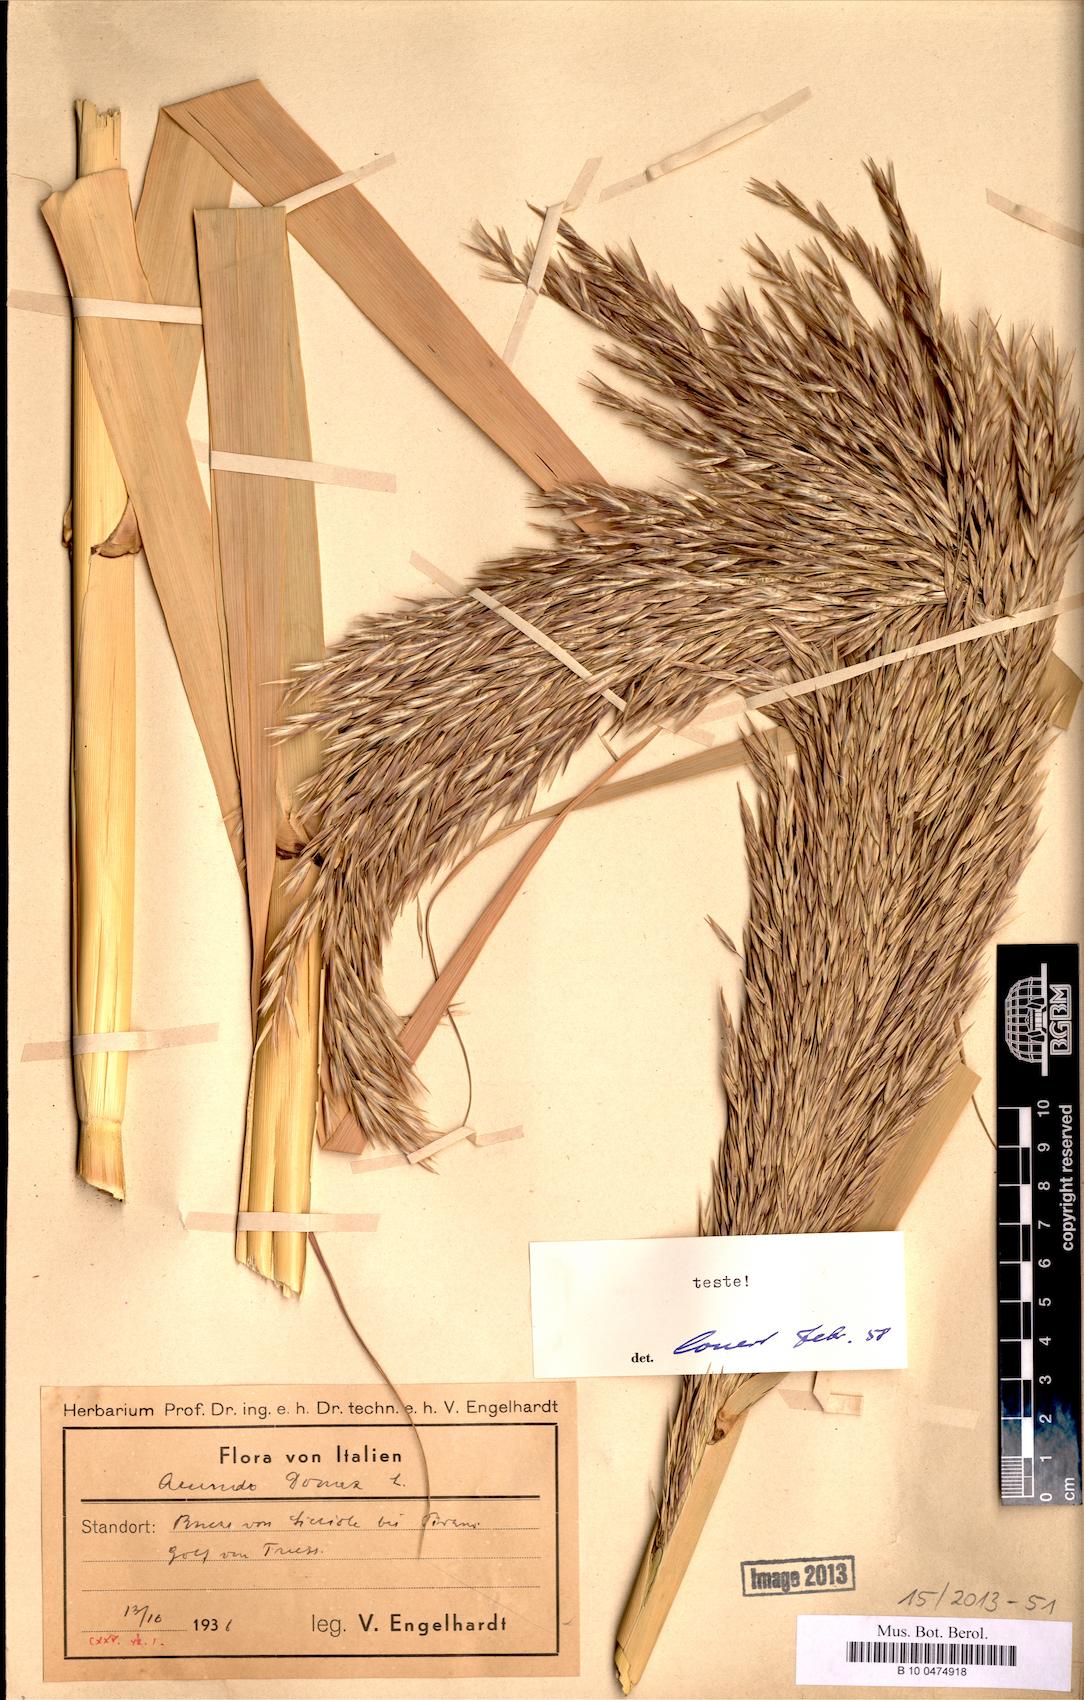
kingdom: Plantae
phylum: Tracheophyta
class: Liliopsida
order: Poales
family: Poaceae
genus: Arundo
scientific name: Arundo donax
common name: Giant reed
